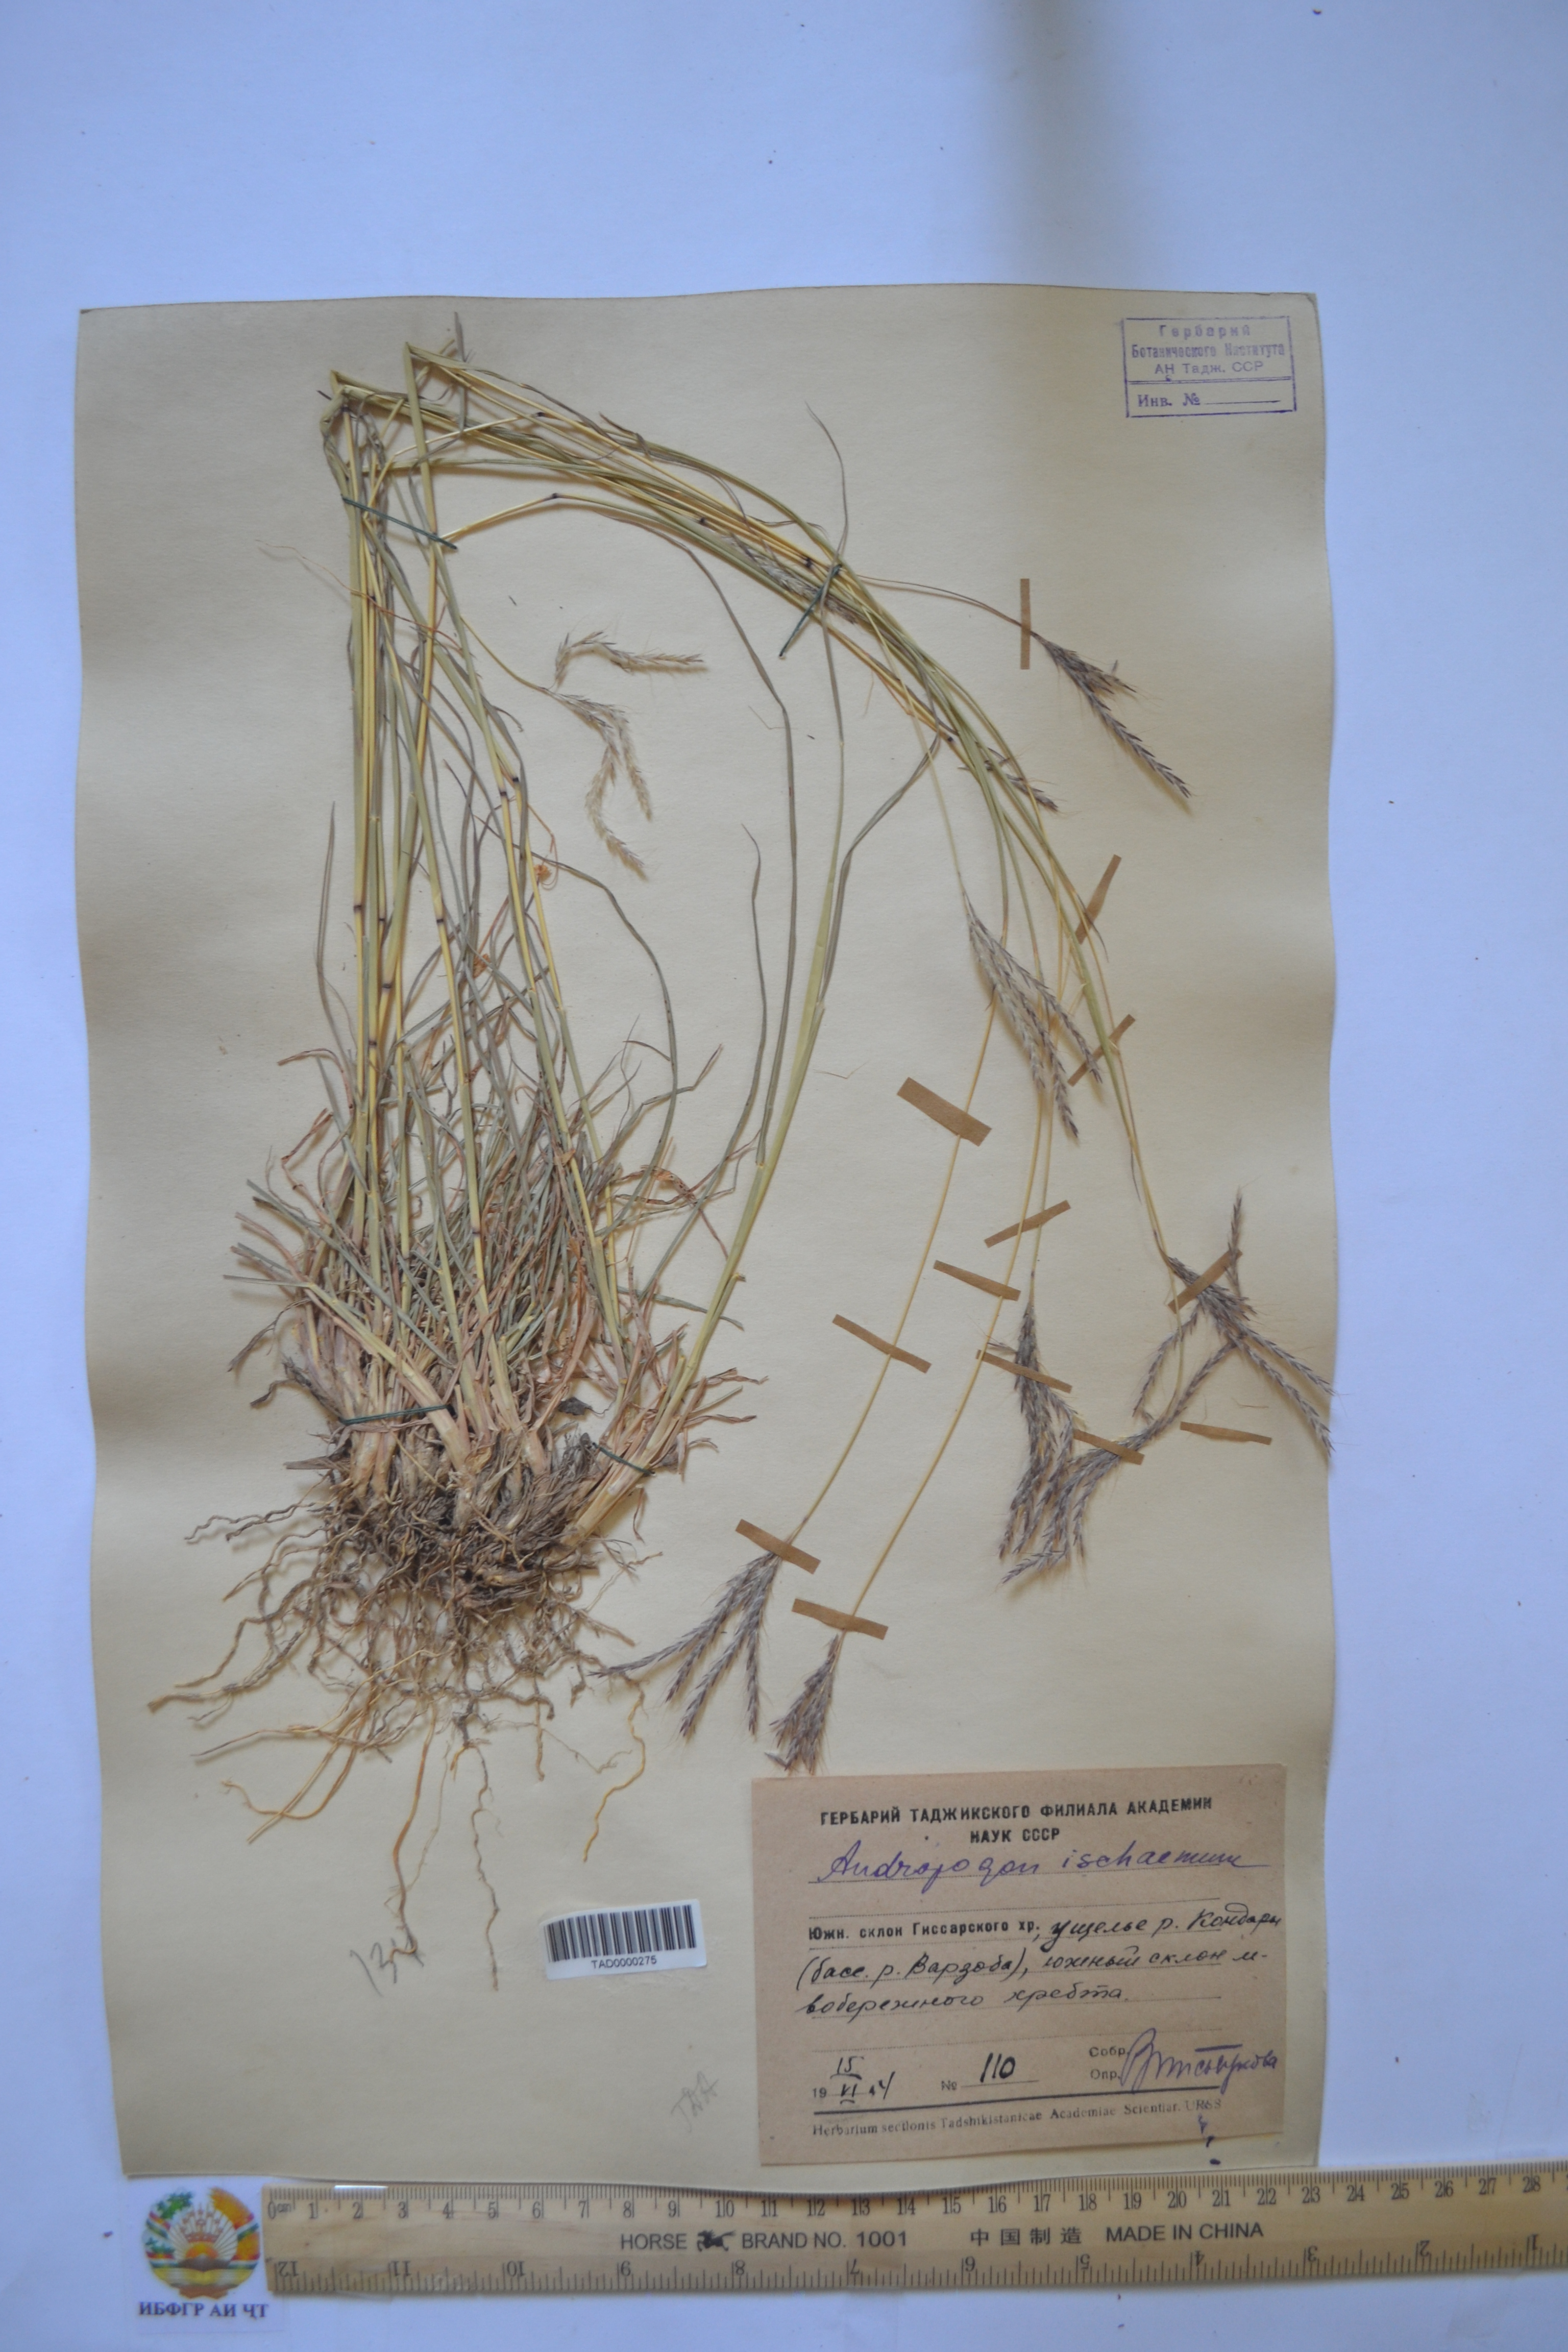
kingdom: Plantae
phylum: Tracheophyta
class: Liliopsida
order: Poales
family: Poaceae
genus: Bothriochloa
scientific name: Bothriochloa ischaemum
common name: Yellow bluestem
